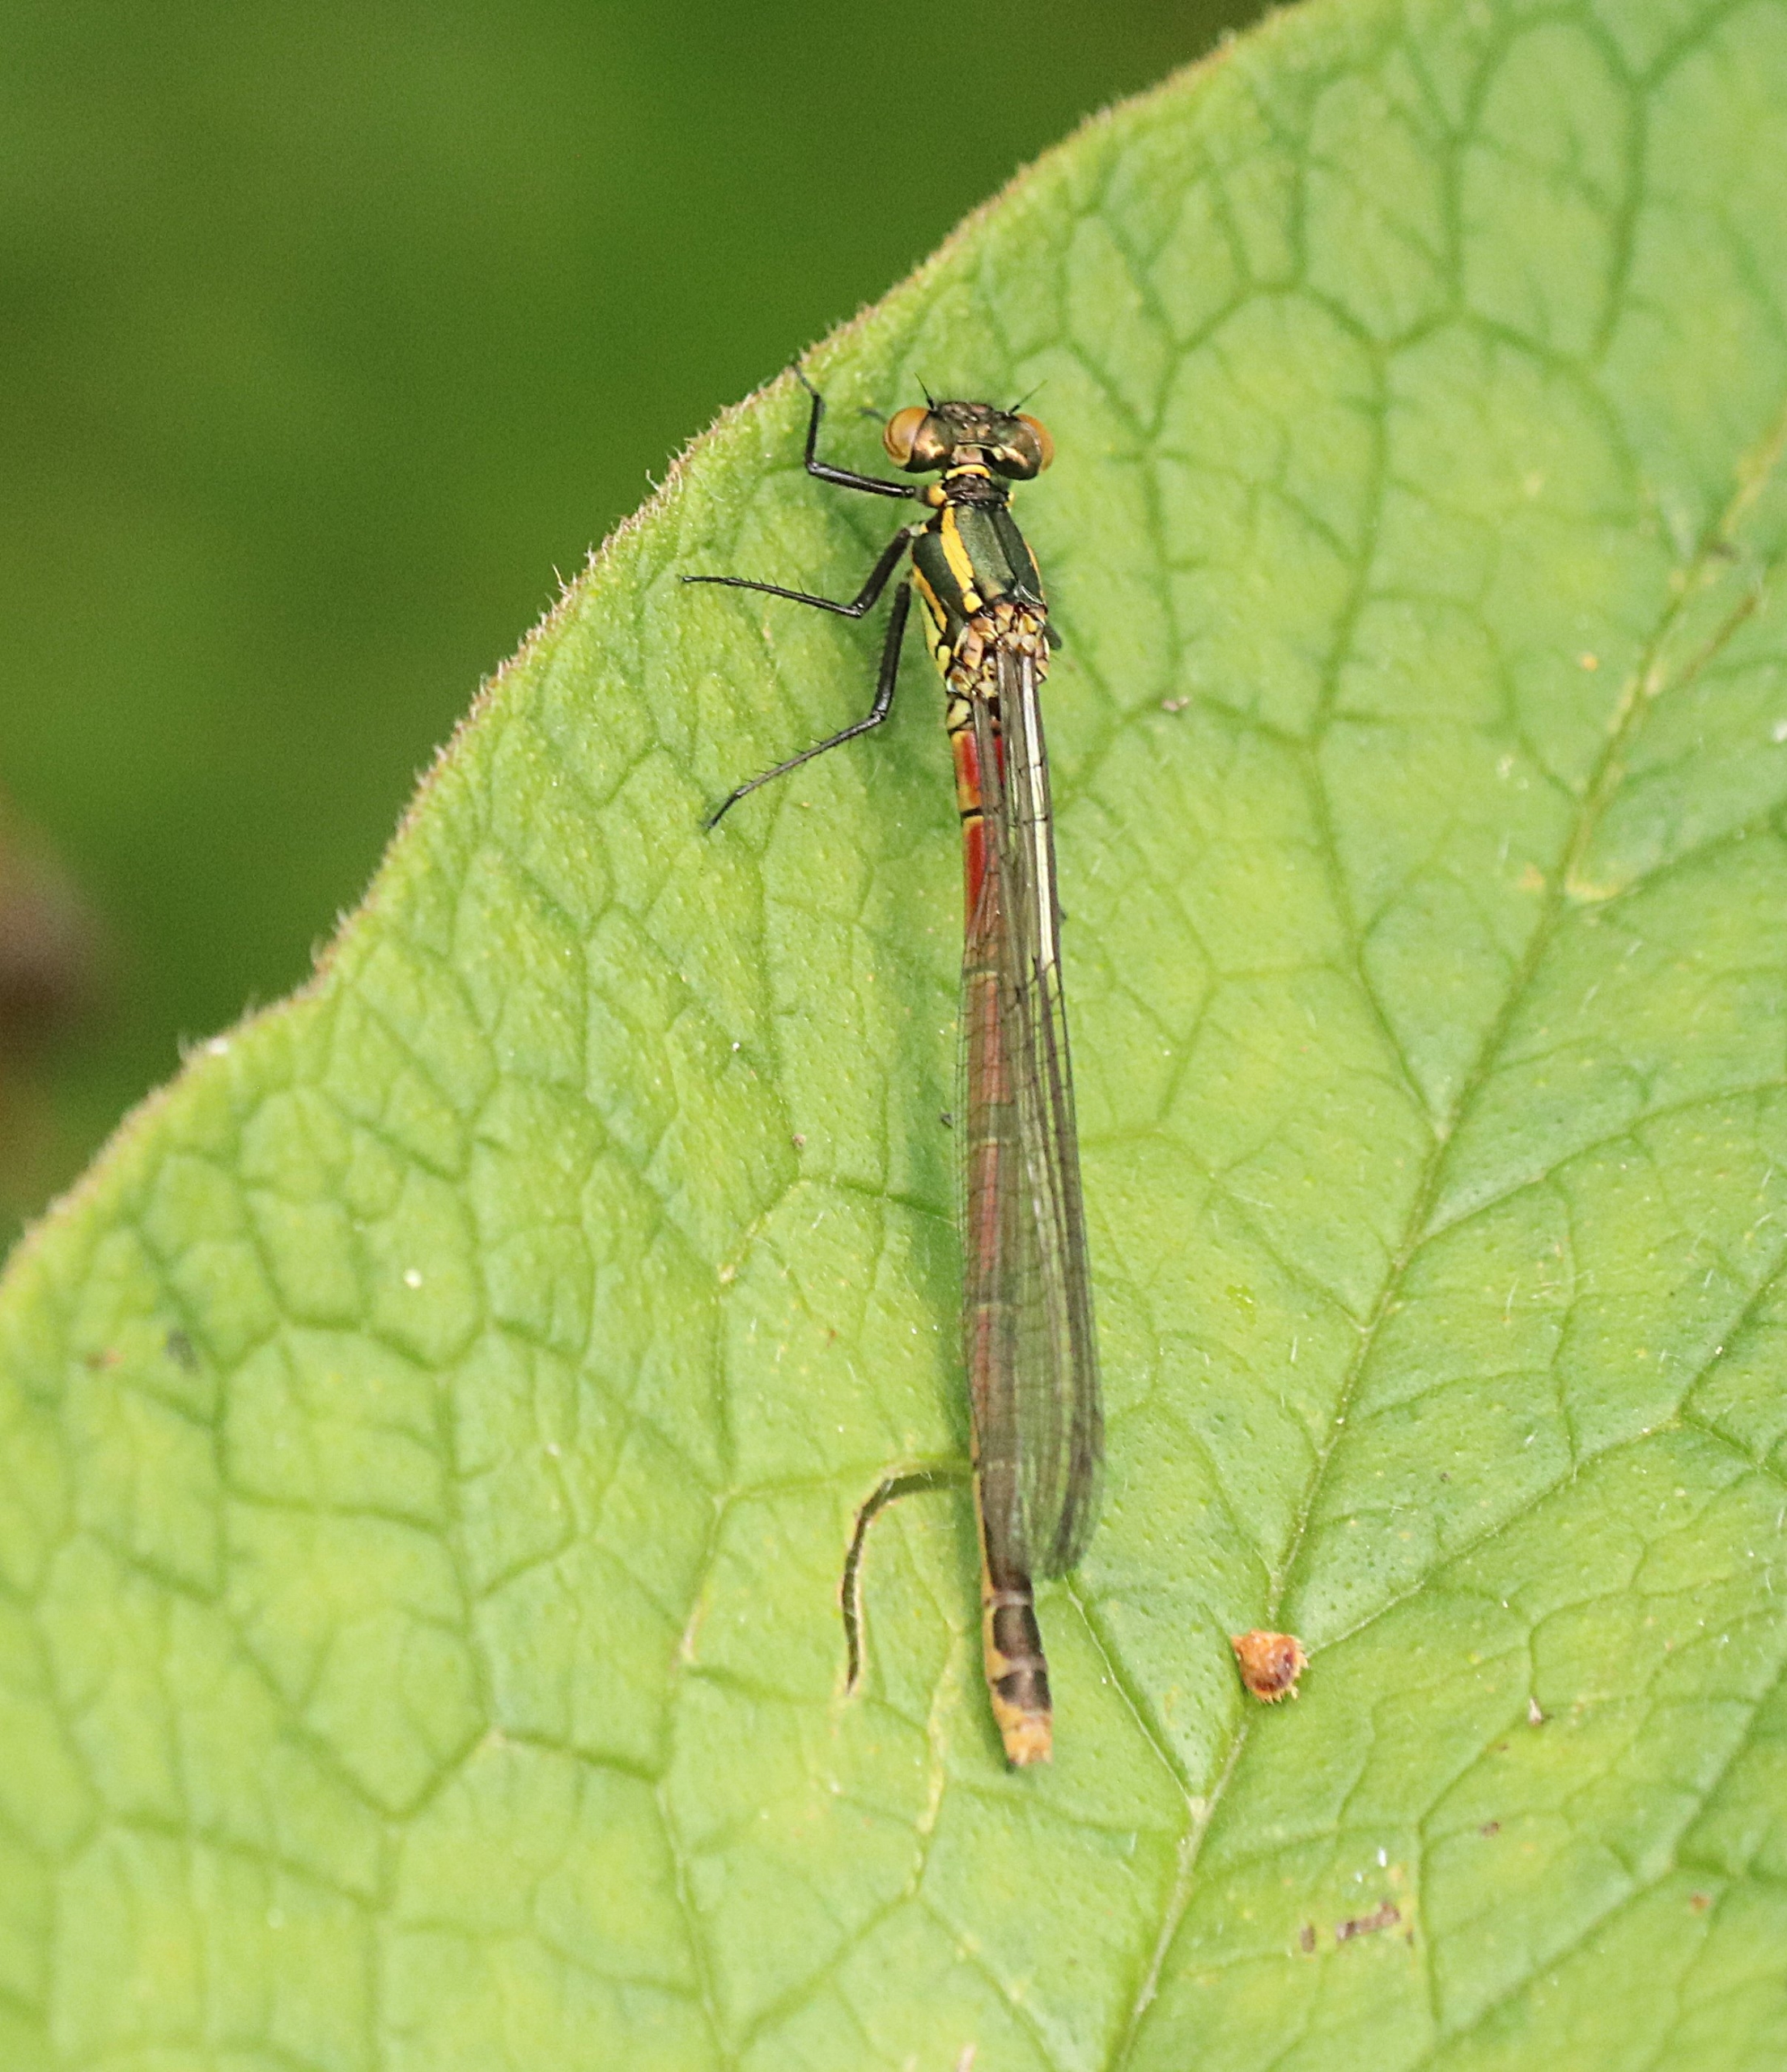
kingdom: Animalia
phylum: Arthropoda
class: Insecta
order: Odonata
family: Coenagrionidae
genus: Pyrrhosoma
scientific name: Pyrrhosoma nymphula
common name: Rød vandnymfe
